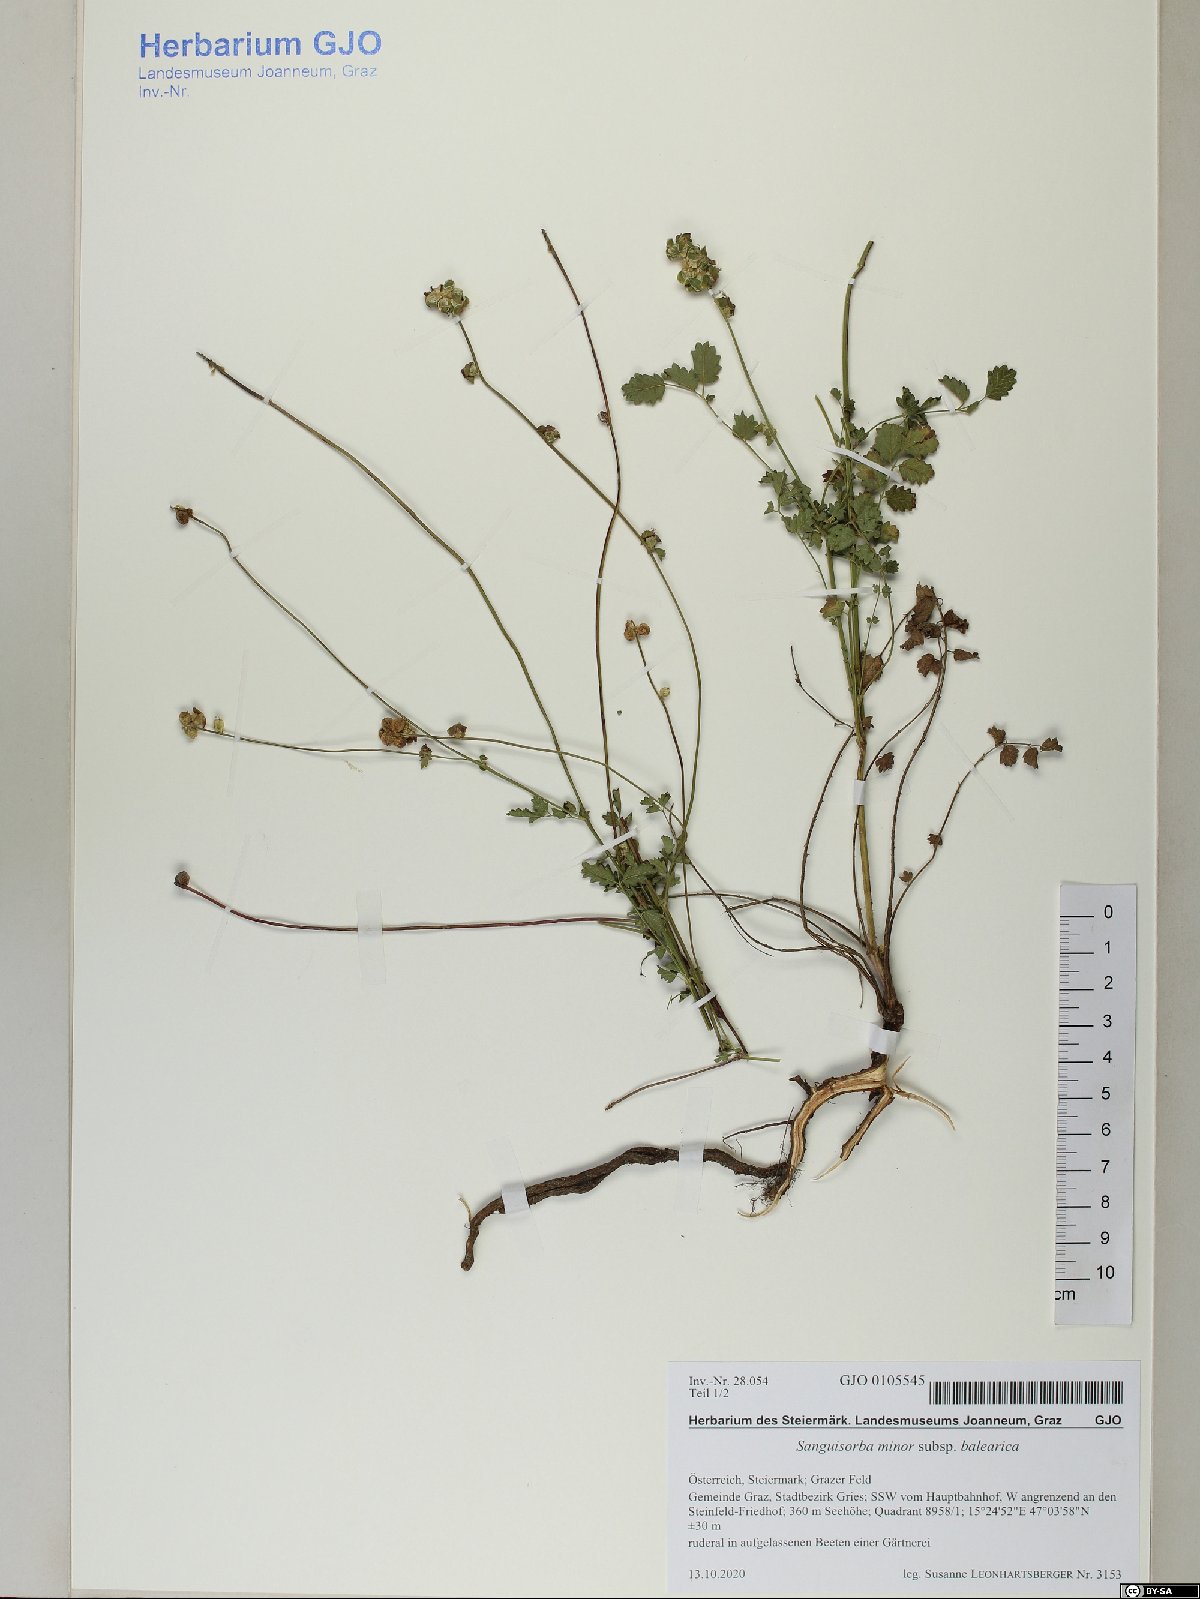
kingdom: Plantae
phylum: Tracheophyta
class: Magnoliopsida
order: Rosales
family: Rosaceae
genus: Poterium
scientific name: Poterium sanguisorba
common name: Salad burnet
